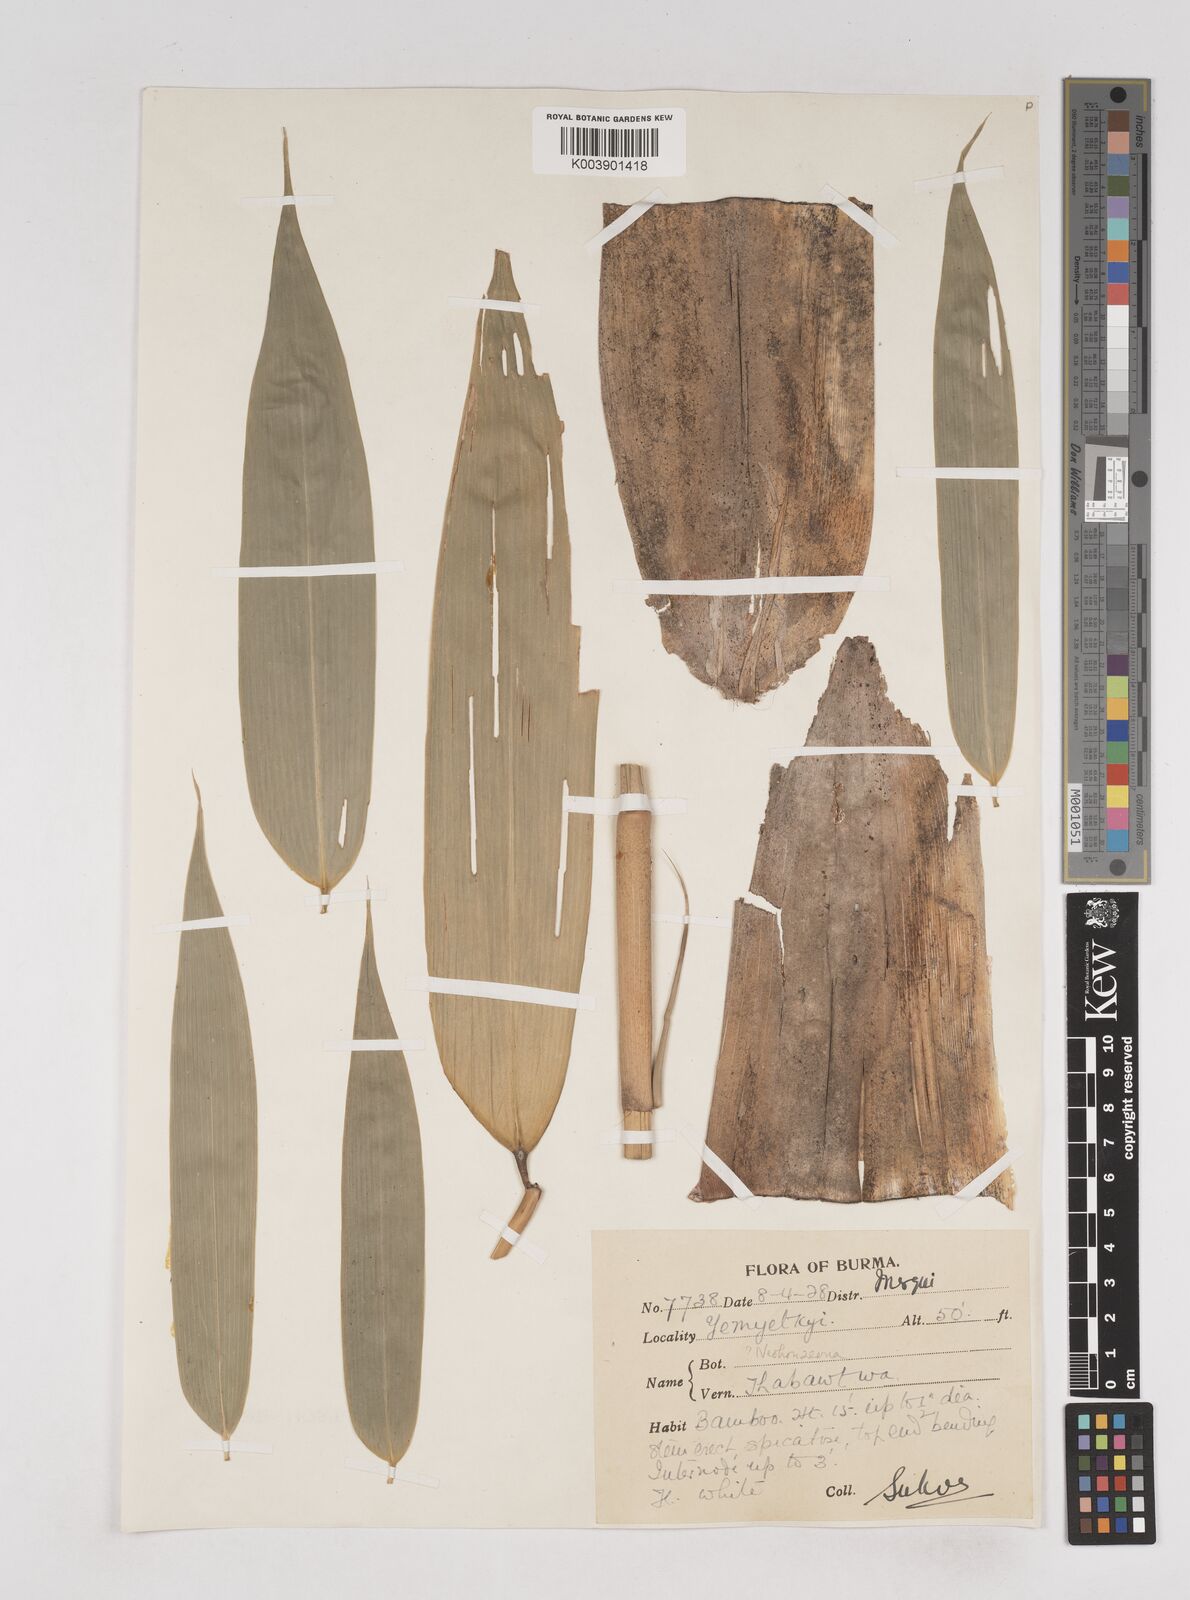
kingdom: Plantae
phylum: Tracheophyta
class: Liliopsida
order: Poales
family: Poaceae
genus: Schizostachyum
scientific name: Schizostachyum
